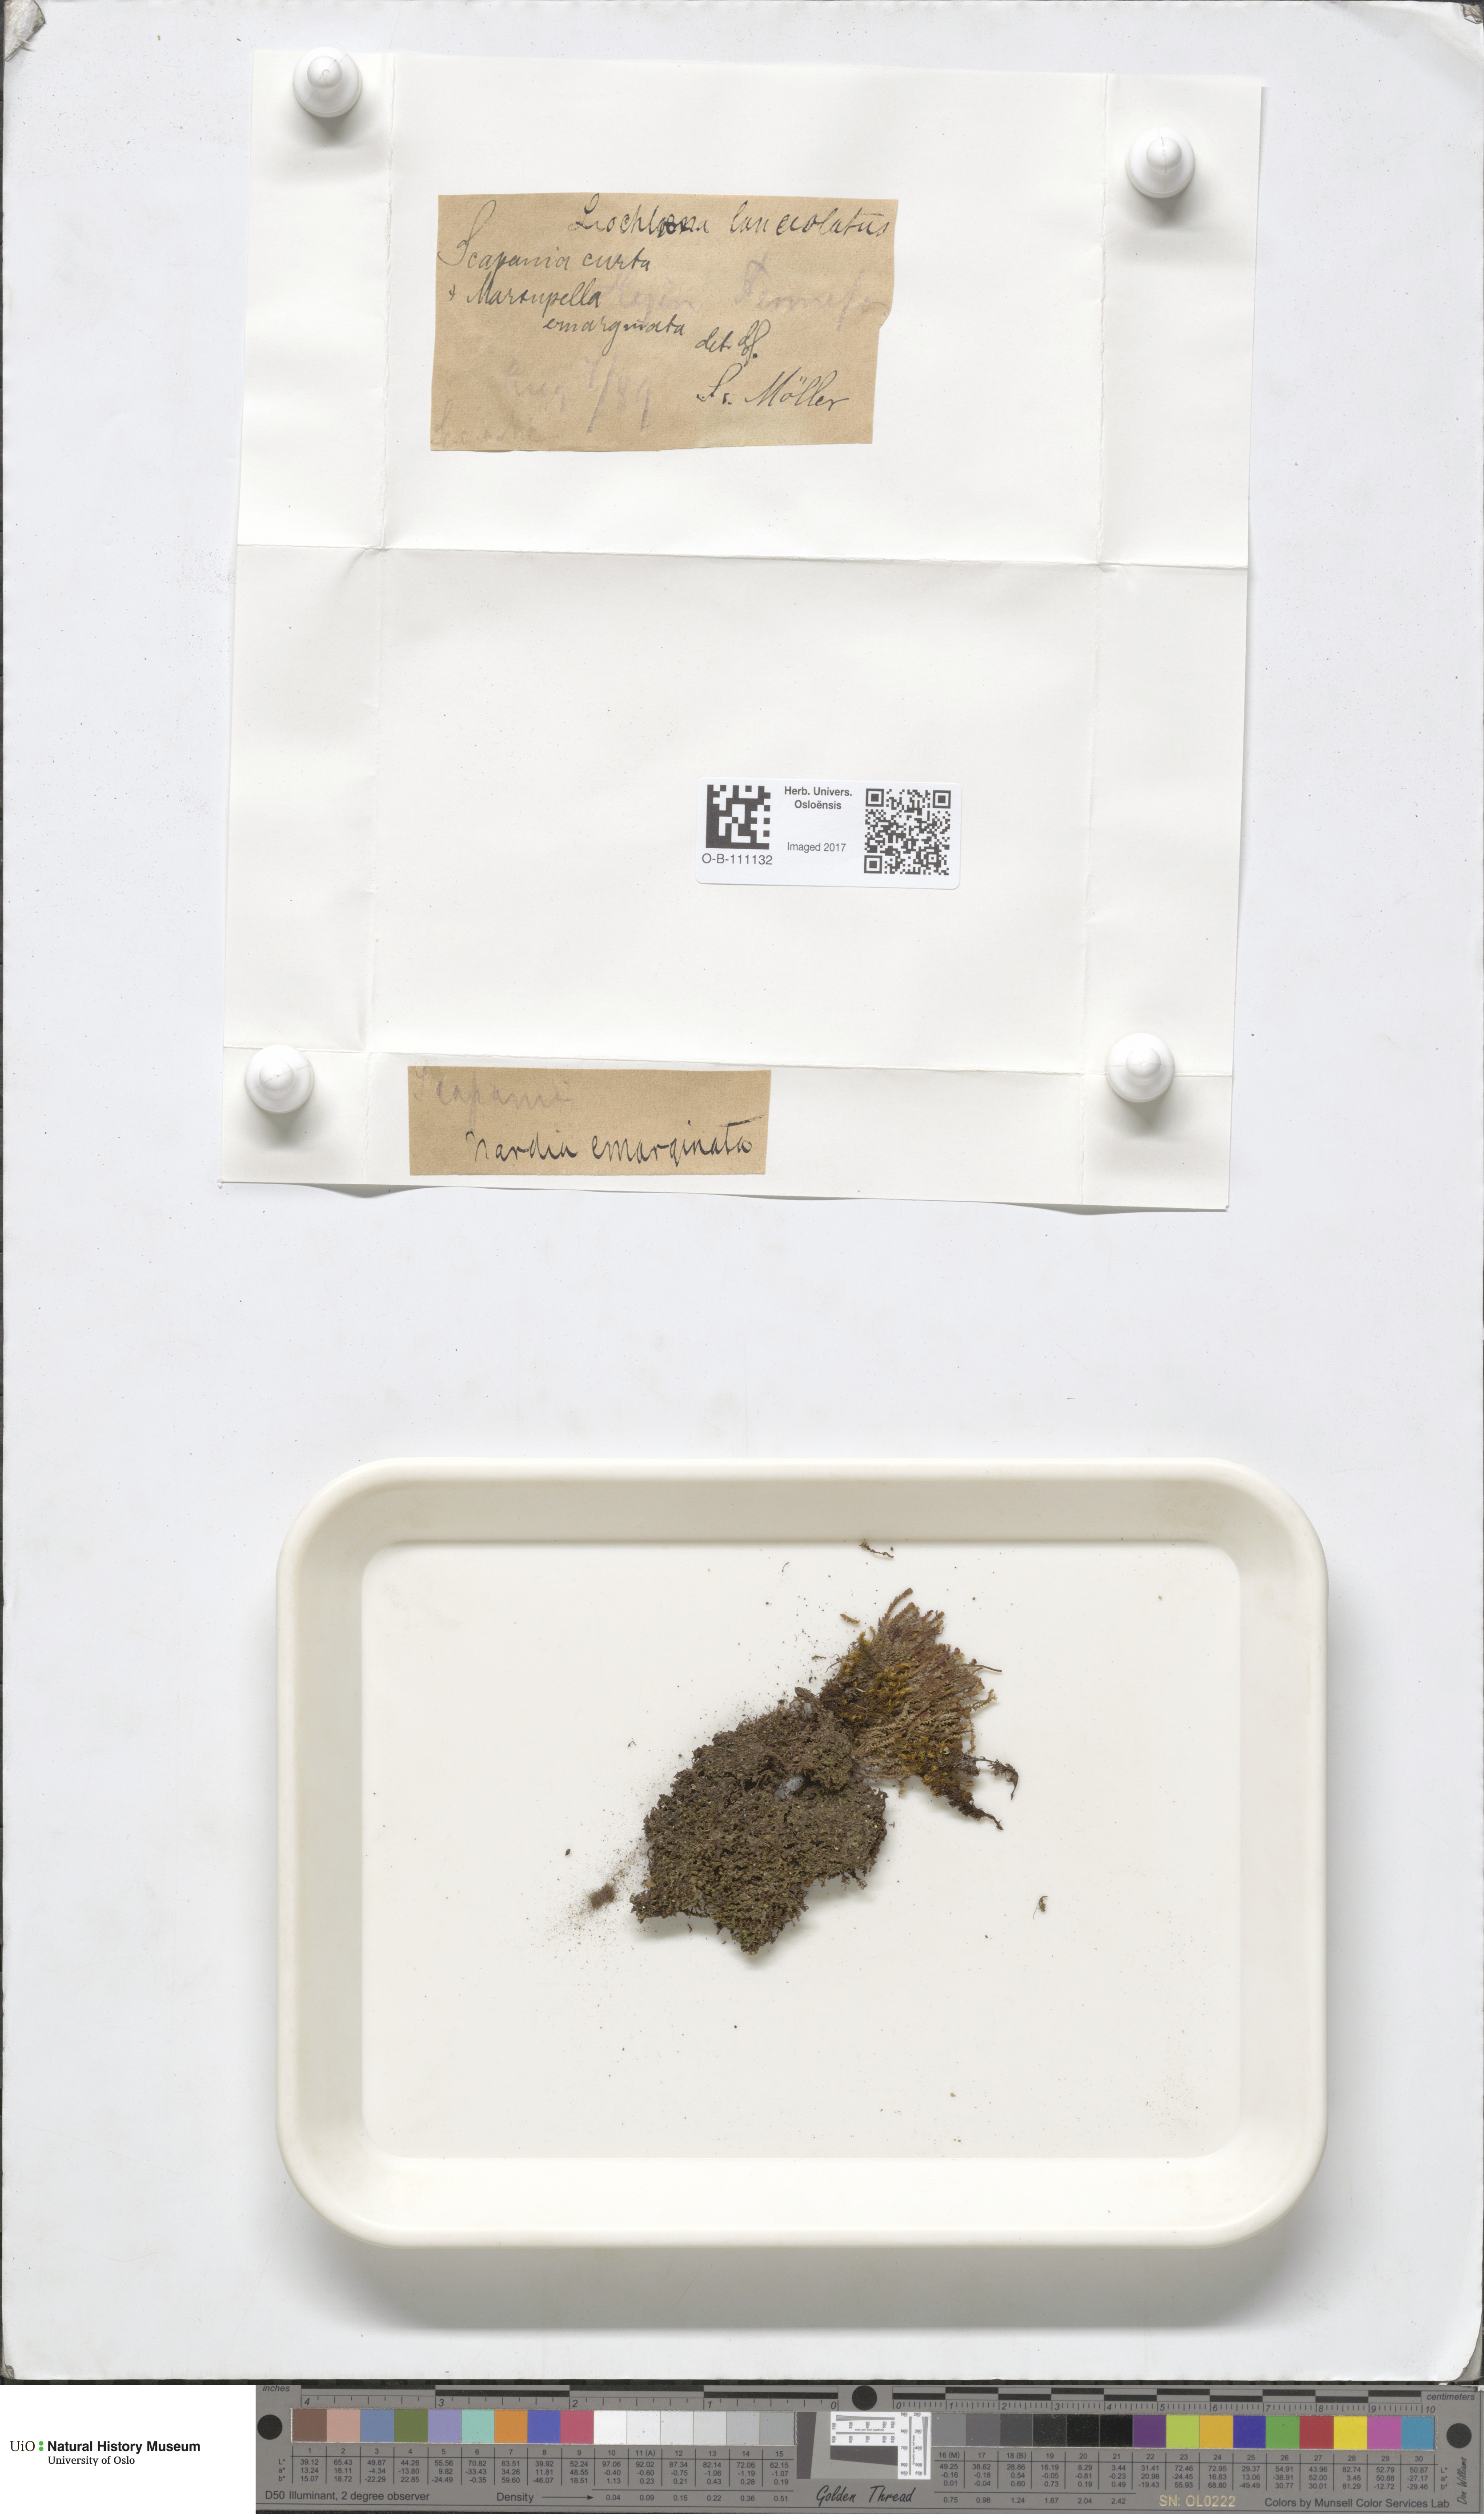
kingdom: Plantae
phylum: Marchantiophyta
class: Jungermanniopsida
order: Jungermanniales
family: Scapaniaceae
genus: Scapania
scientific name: Scapania curta
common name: Least earwort
